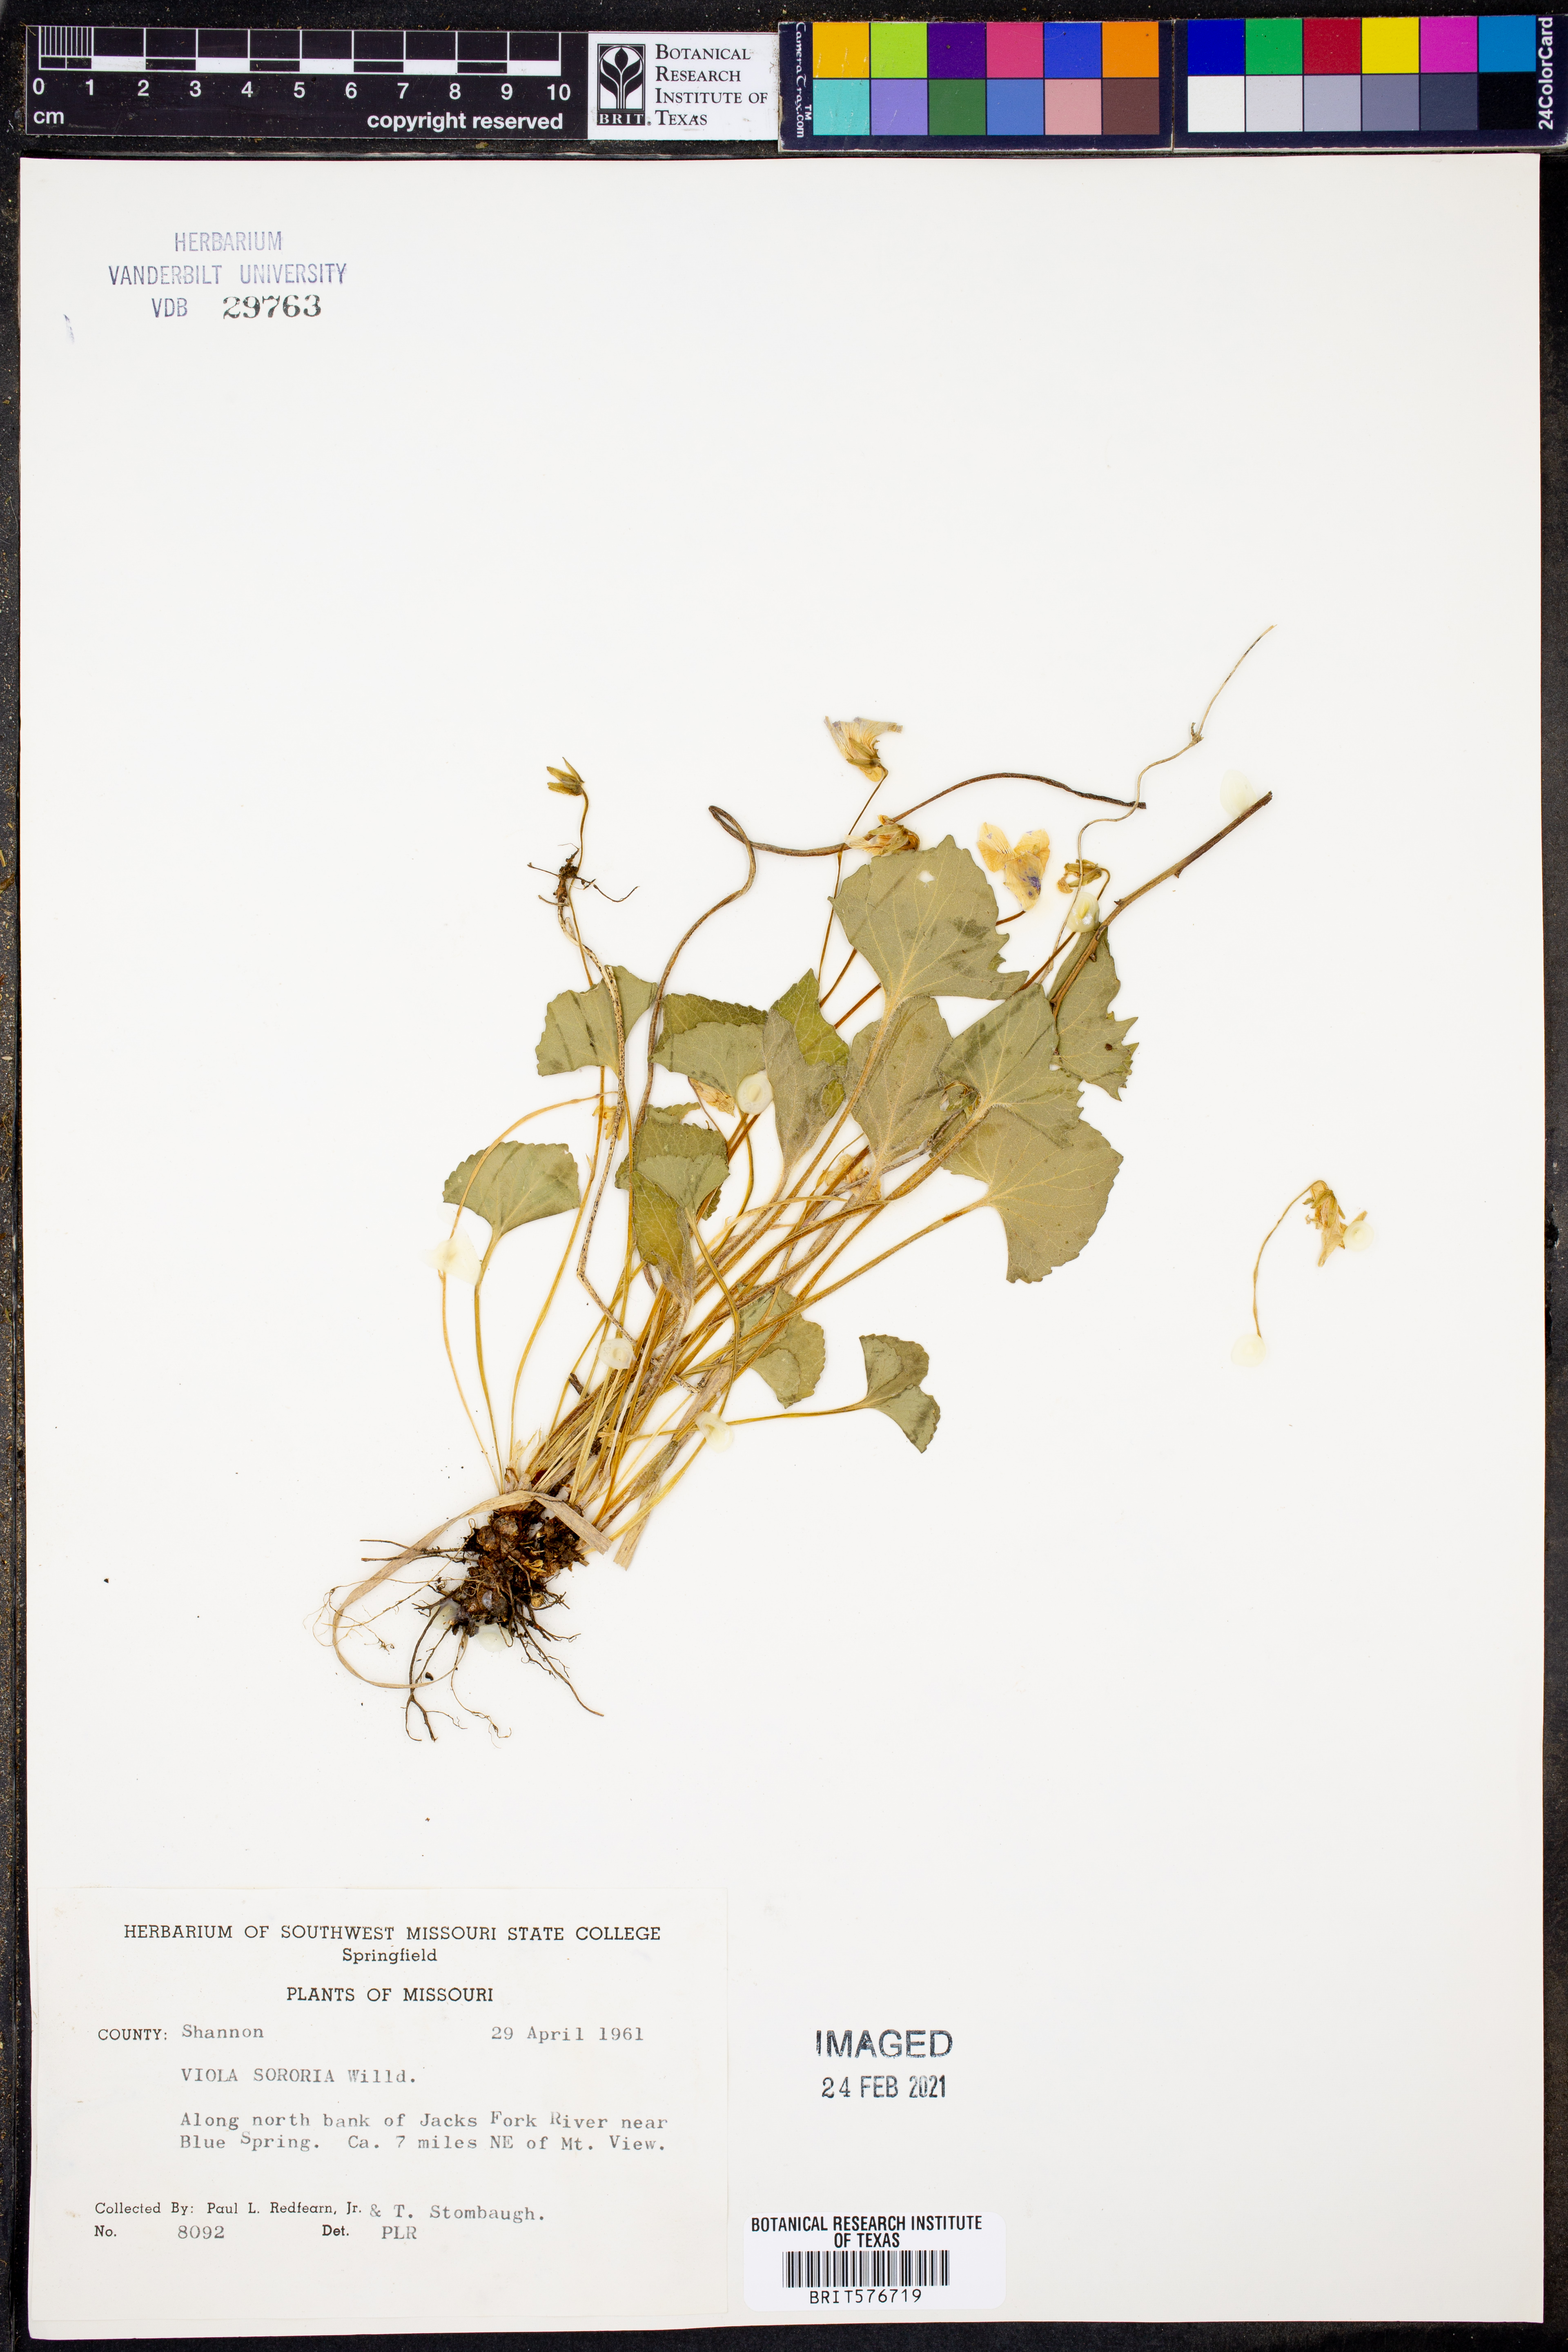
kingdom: Plantae
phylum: Tracheophyta
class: Magnoliopsida
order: Malpighiales
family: Violaceae
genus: Viola
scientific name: Viola sororia
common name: Dooryard violet
